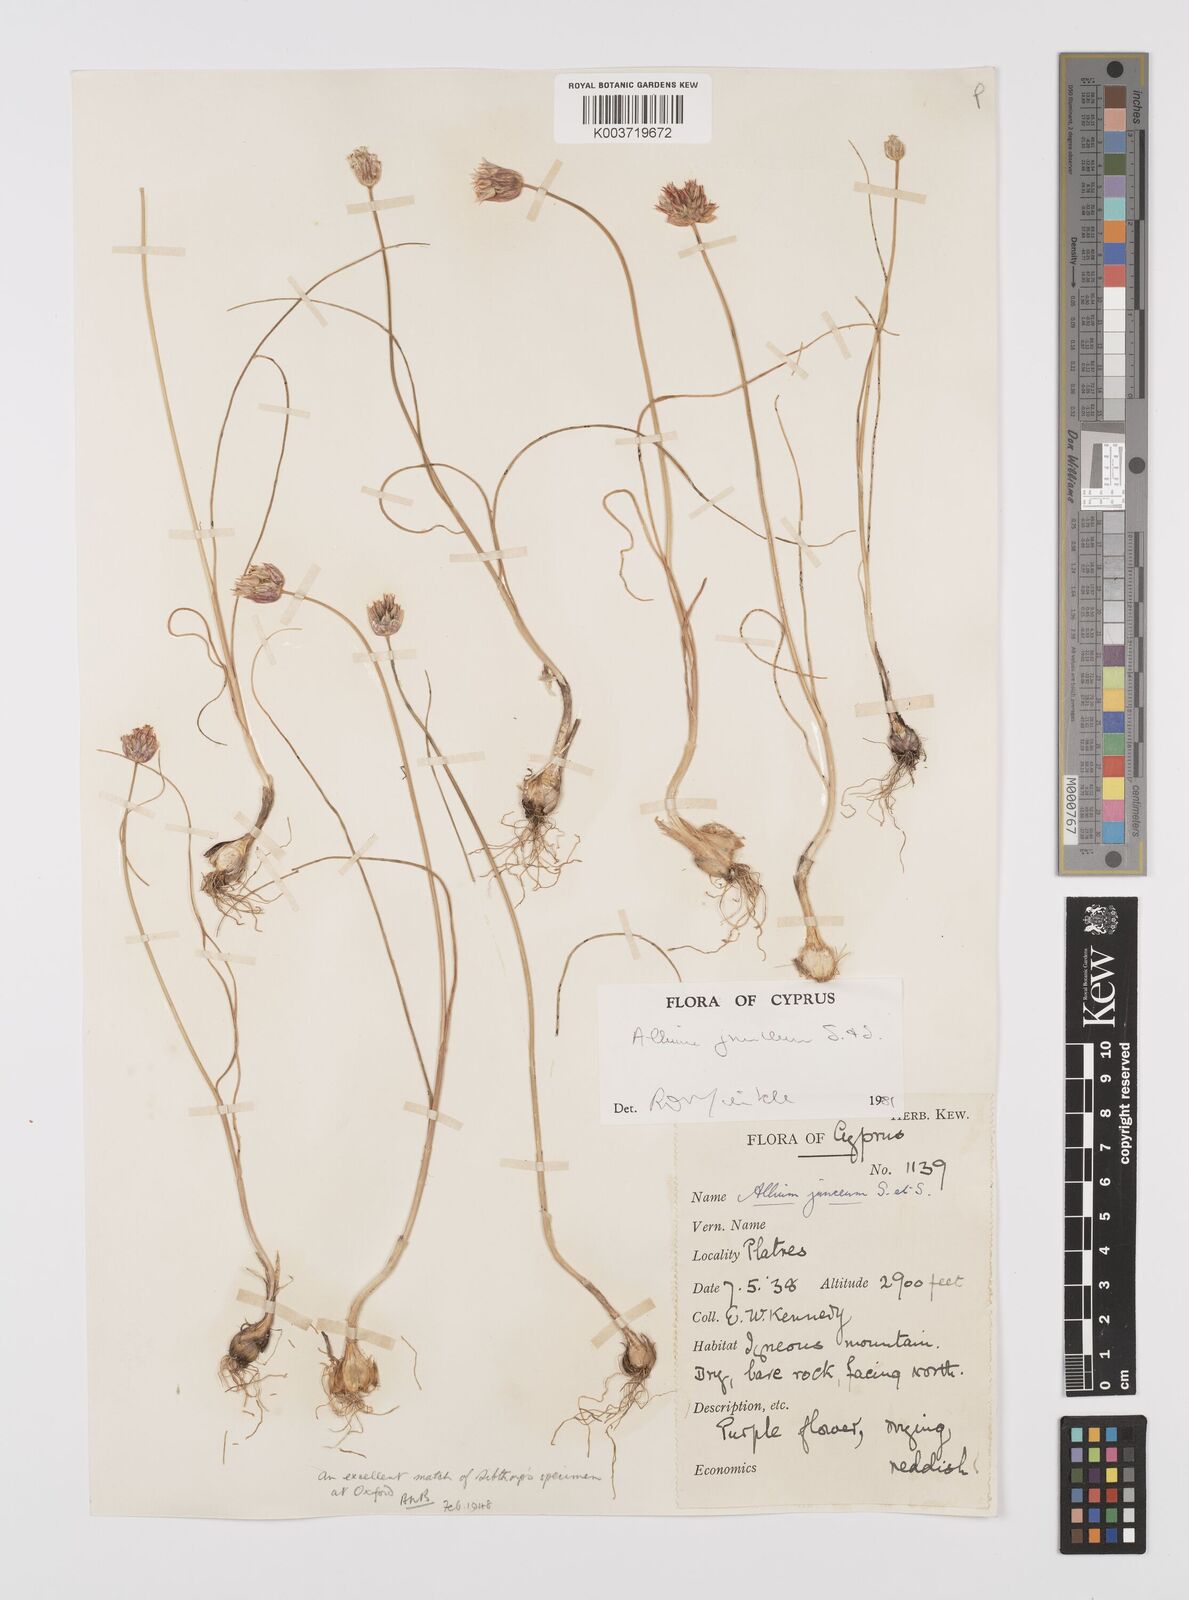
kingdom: Plantae
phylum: Tracheophyta
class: Liliopsida
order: Asparagales
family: Amaryllidaceae
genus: Allium
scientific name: Allium junceum
